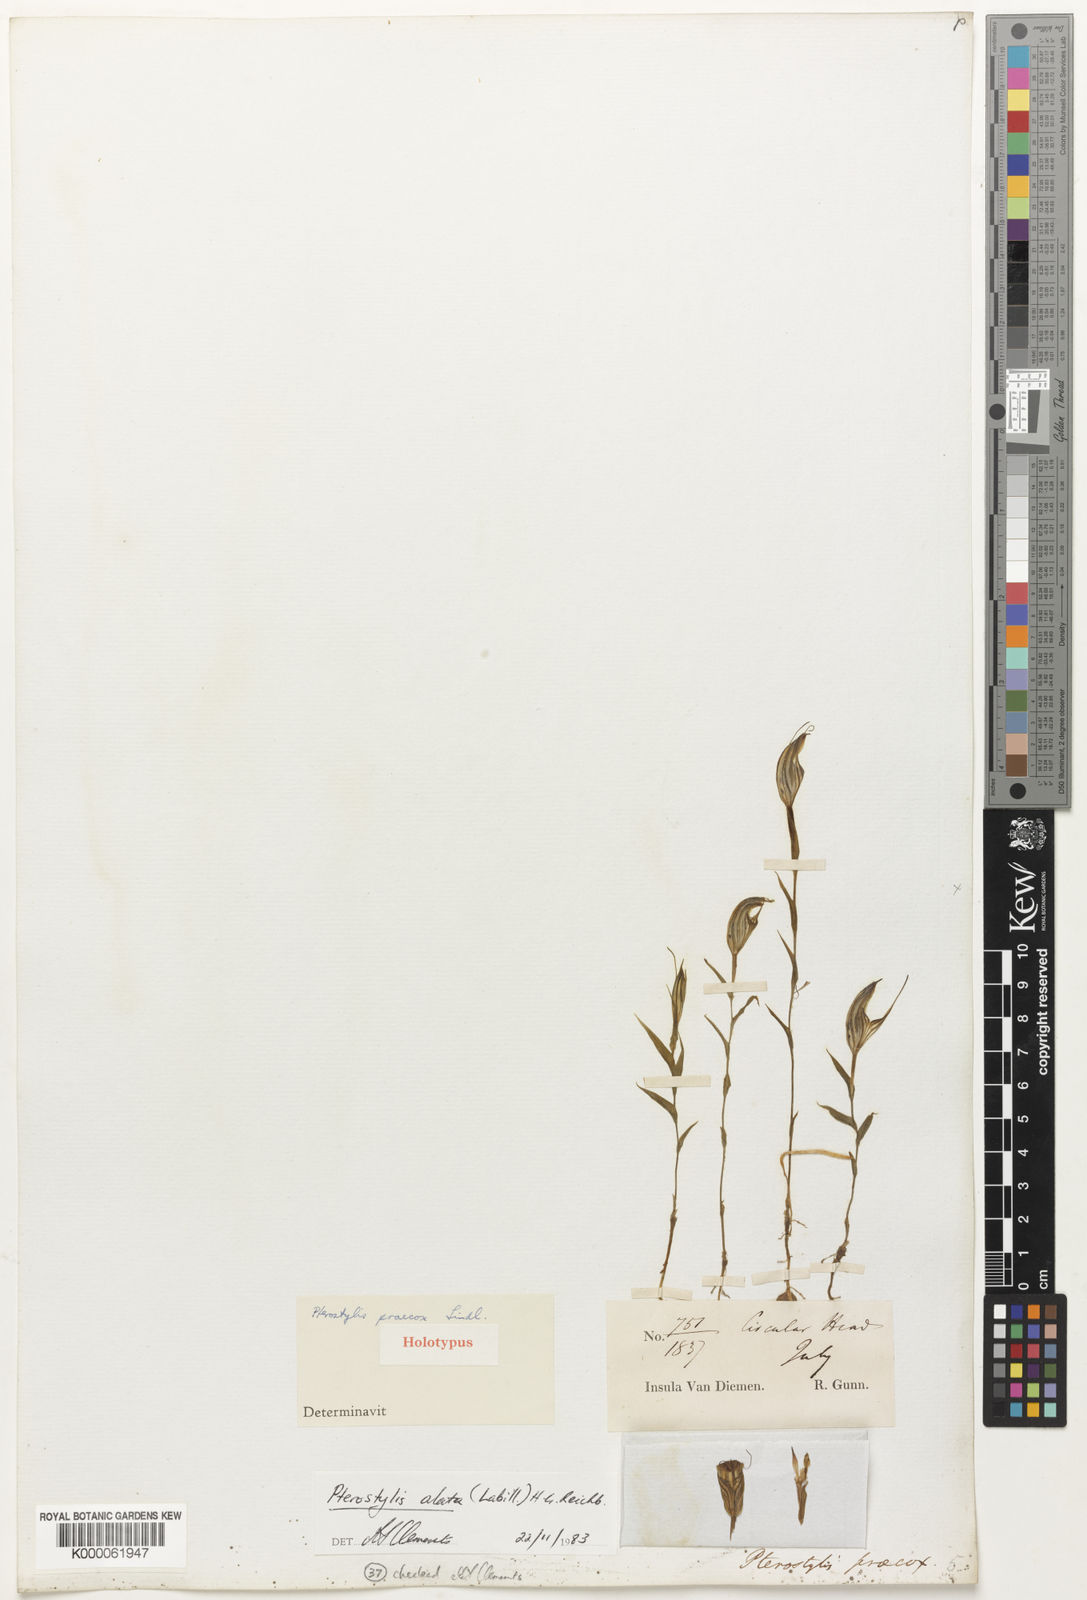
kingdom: Plantae
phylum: Tracheophyta
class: Liliopsida
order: Asparagales
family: Orchidaceae
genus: Pterostylis
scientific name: Pterostylis alata
